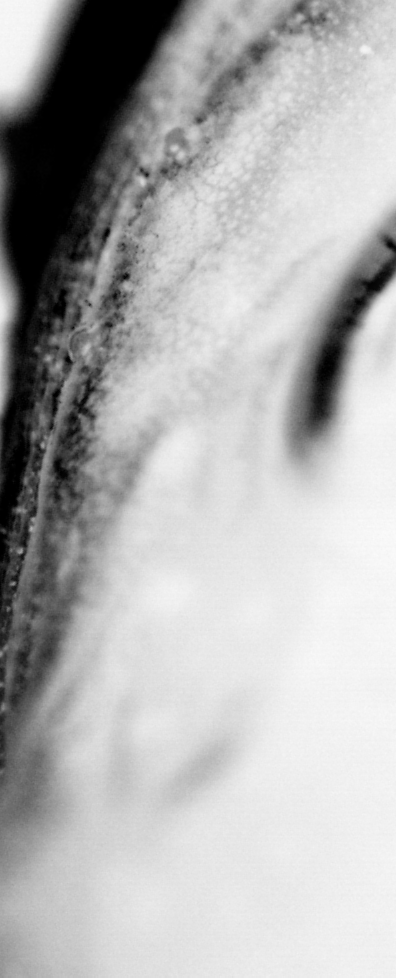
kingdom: Animalia
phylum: Chordata
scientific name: Chordata
